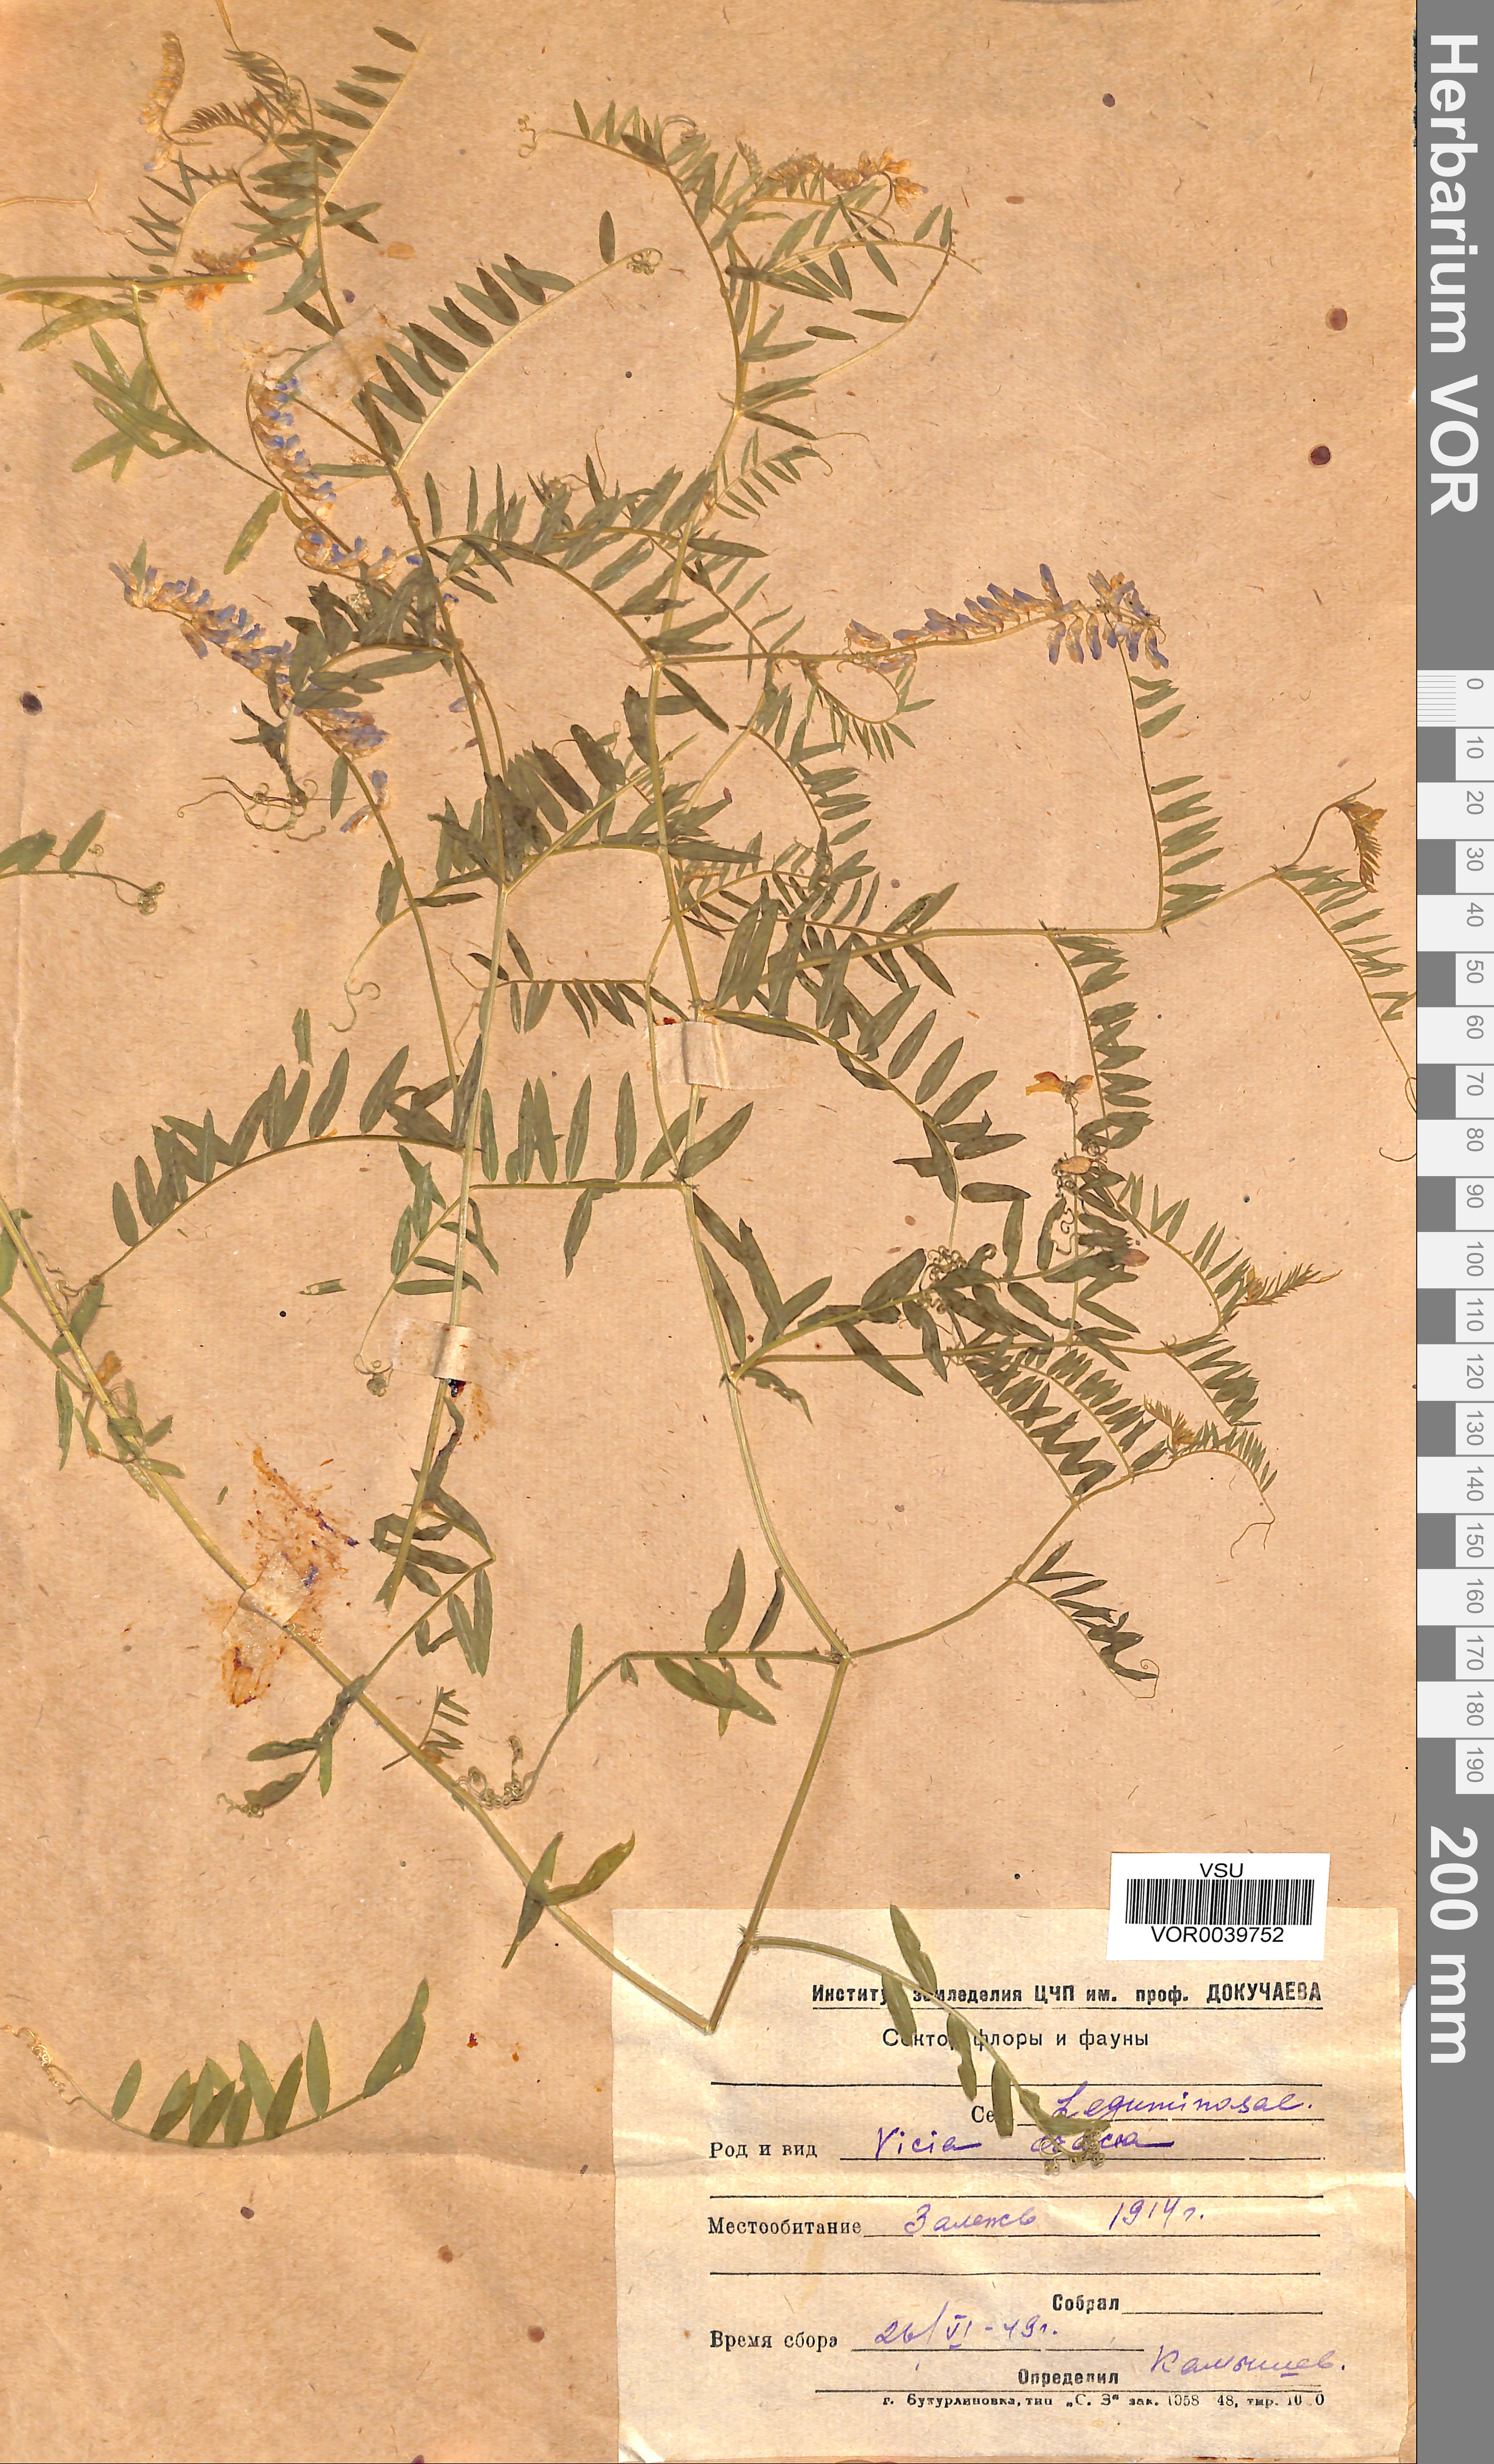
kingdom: Plantae
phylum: Tracheophyta
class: Magnoliopsida
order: Fabales
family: Fabaceae
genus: Vicia
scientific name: Vicia cracca
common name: Bird vetch
